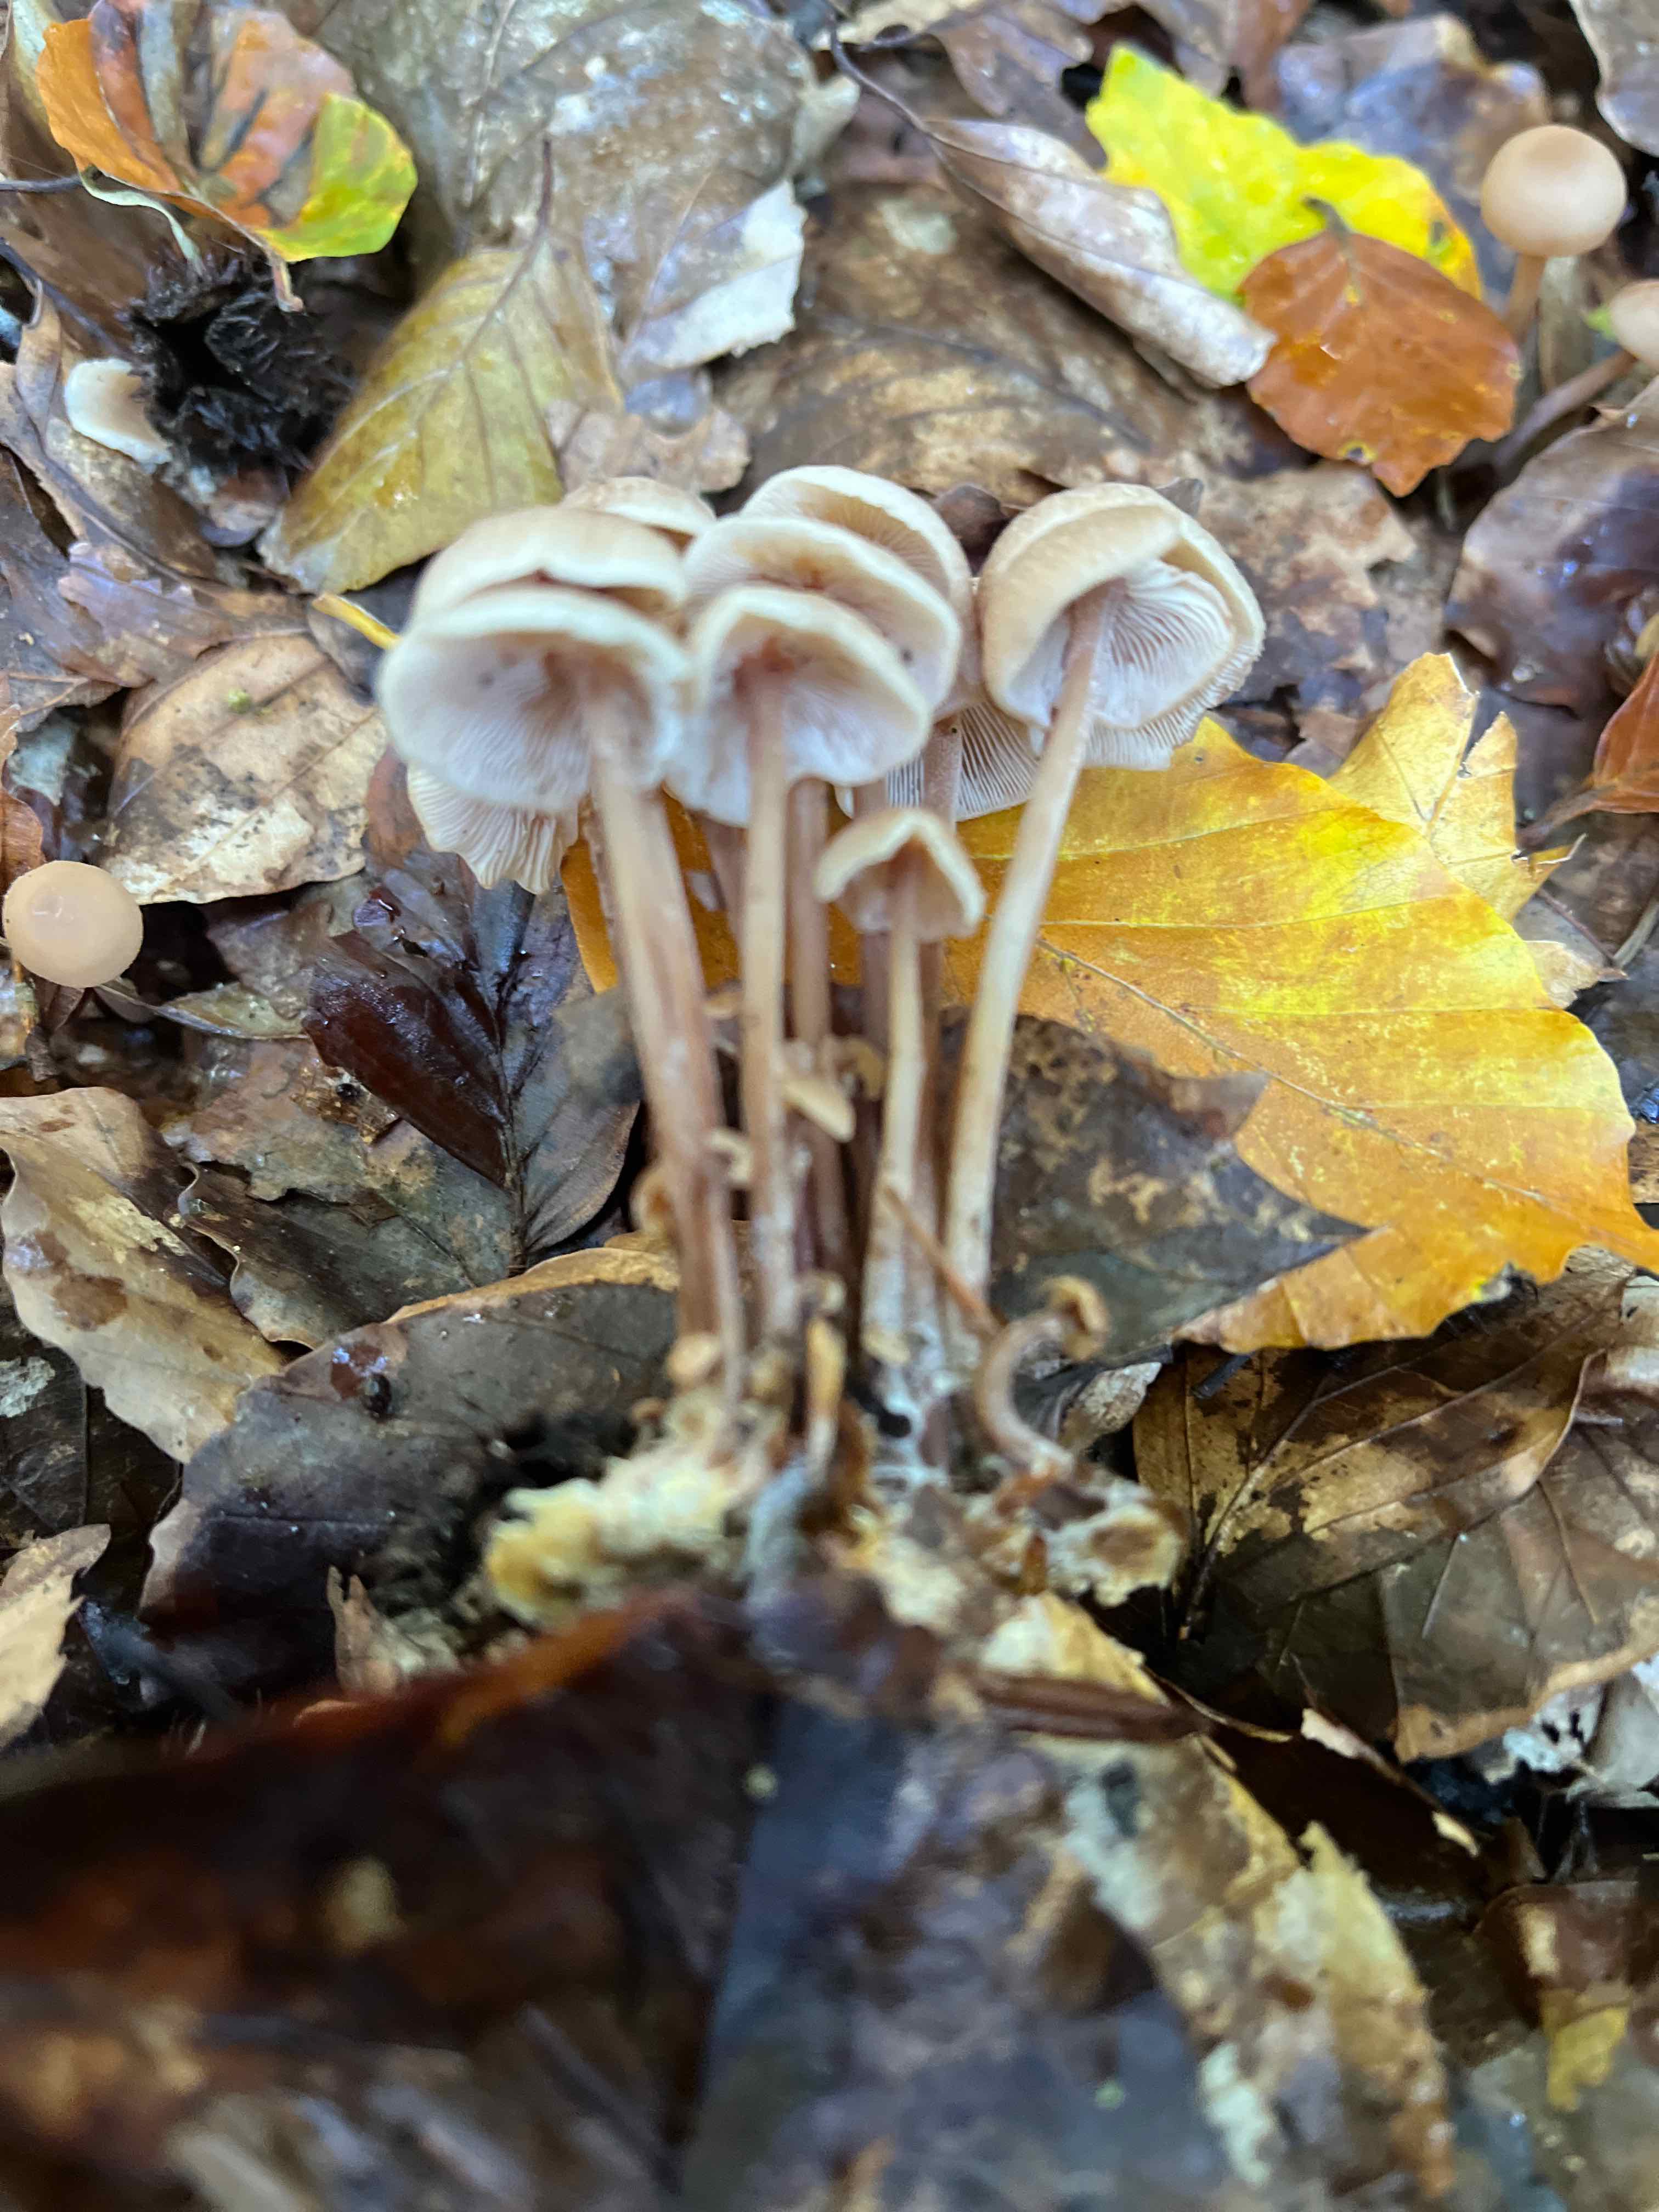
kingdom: Fungi
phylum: Basidiomycota
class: Agaricomycetes
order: Agaricales
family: Omphalotaceae
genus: Collybiopsis
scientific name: Collybiopsis confluens
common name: knippe-fladhat
